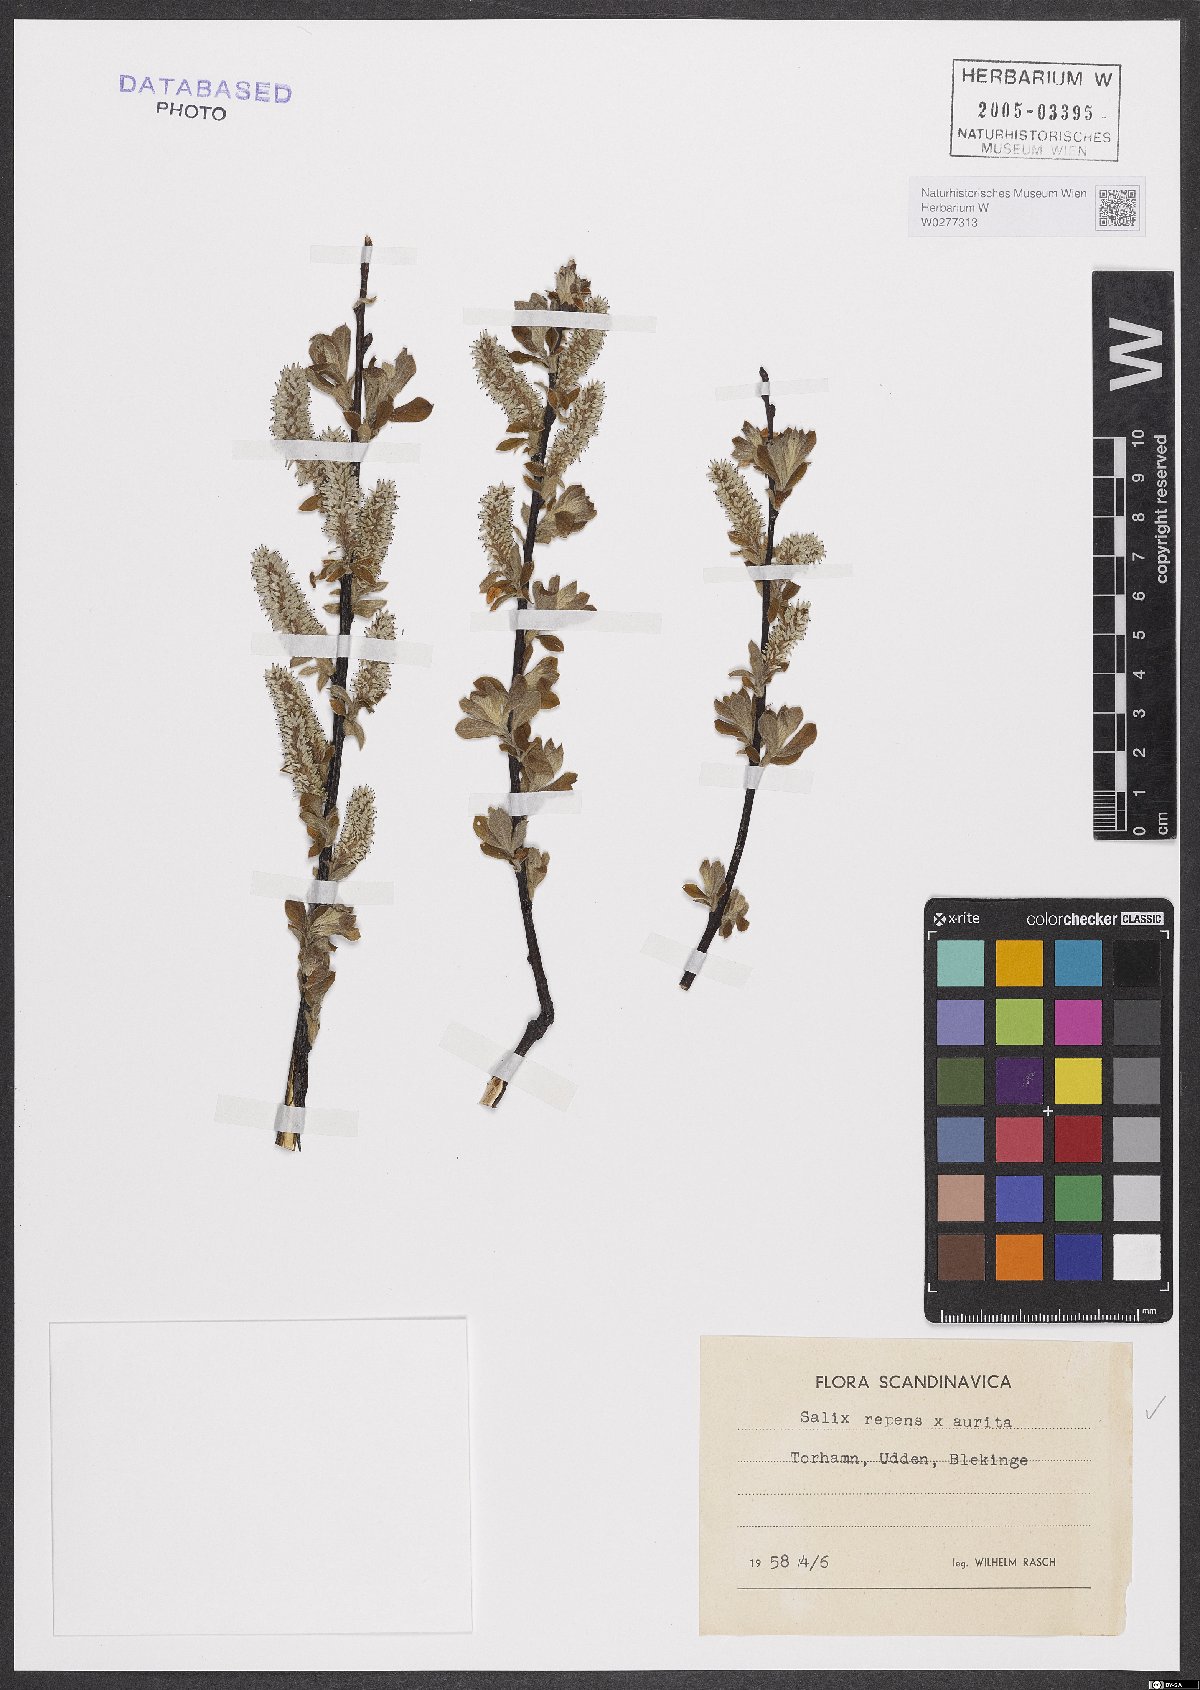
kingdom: Plantae
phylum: Tracheophyta
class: Magnoliopsida
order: Malpighiales
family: Salicaceae
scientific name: Salicaceae
